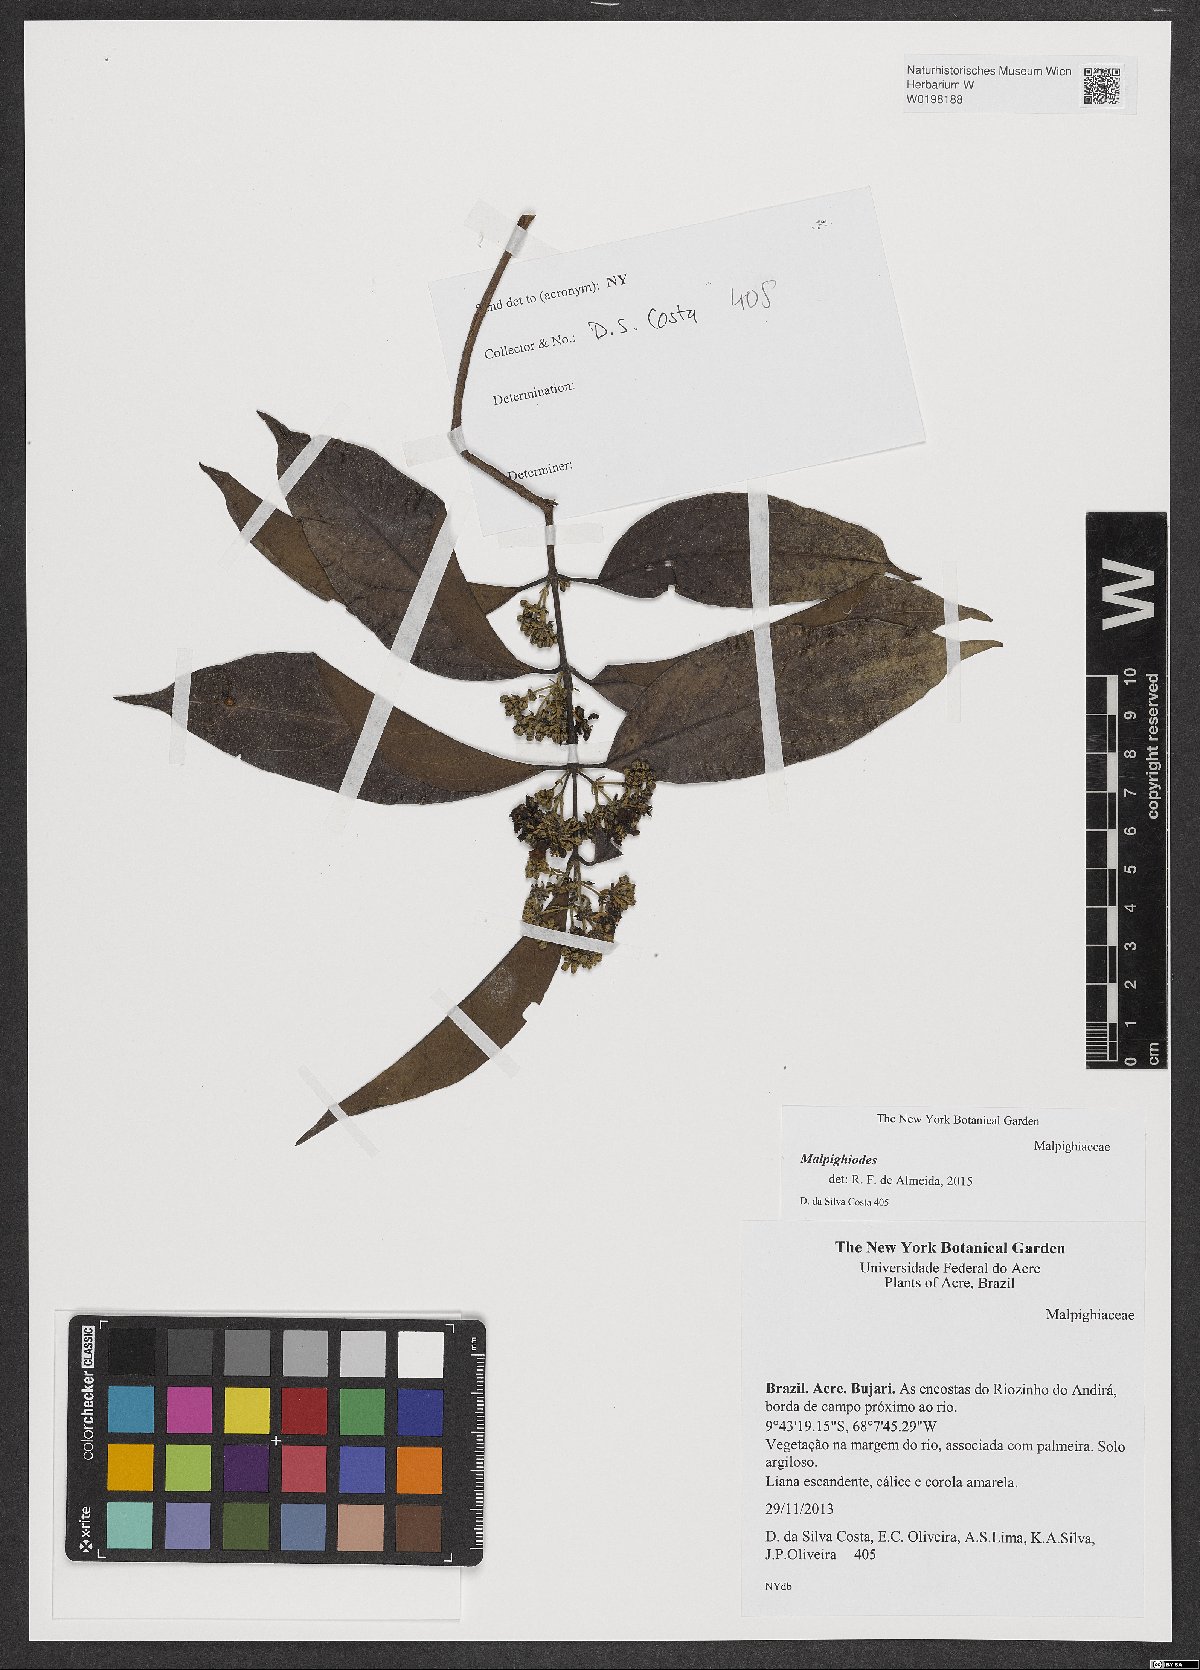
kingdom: Plantae
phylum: Tracheophyta
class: Magnoliopsida
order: Malpighiales
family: Malpighiaceae
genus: Mascagnia
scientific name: Mascagnia
